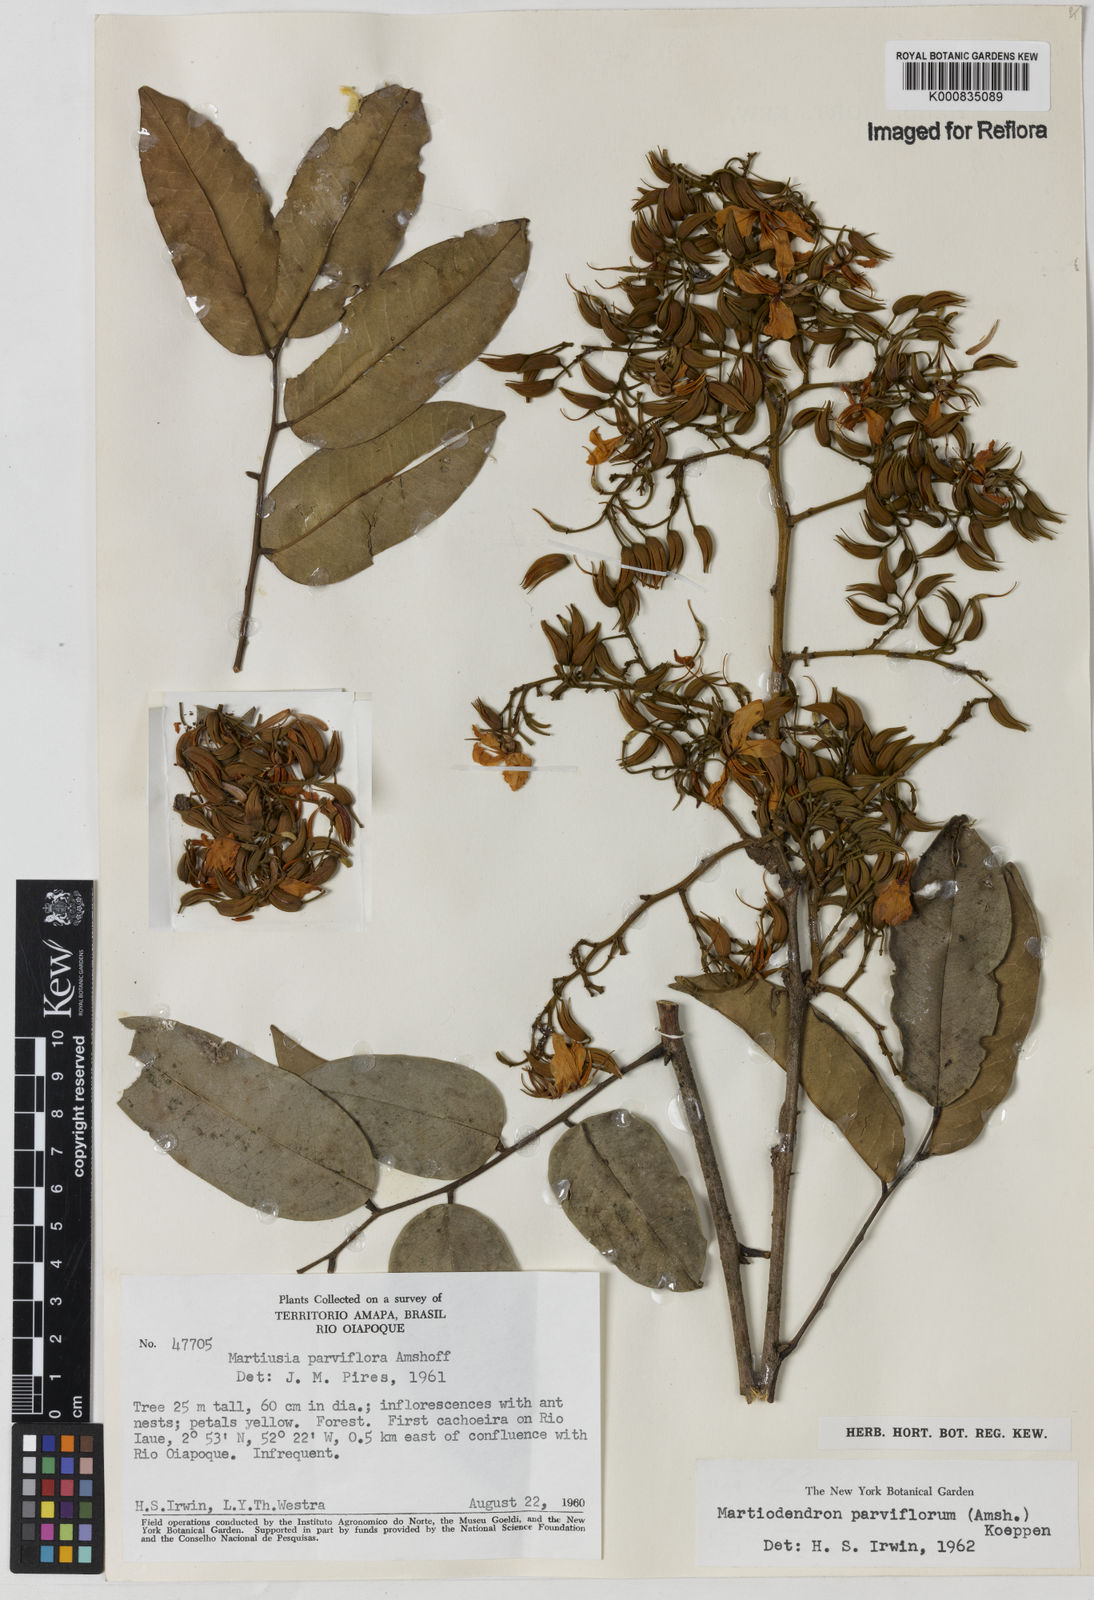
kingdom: Plantae
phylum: Tracheophyta
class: Magnoliopsida
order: Fabales
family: Fabaceae
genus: Clitoria
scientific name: Clitoria
